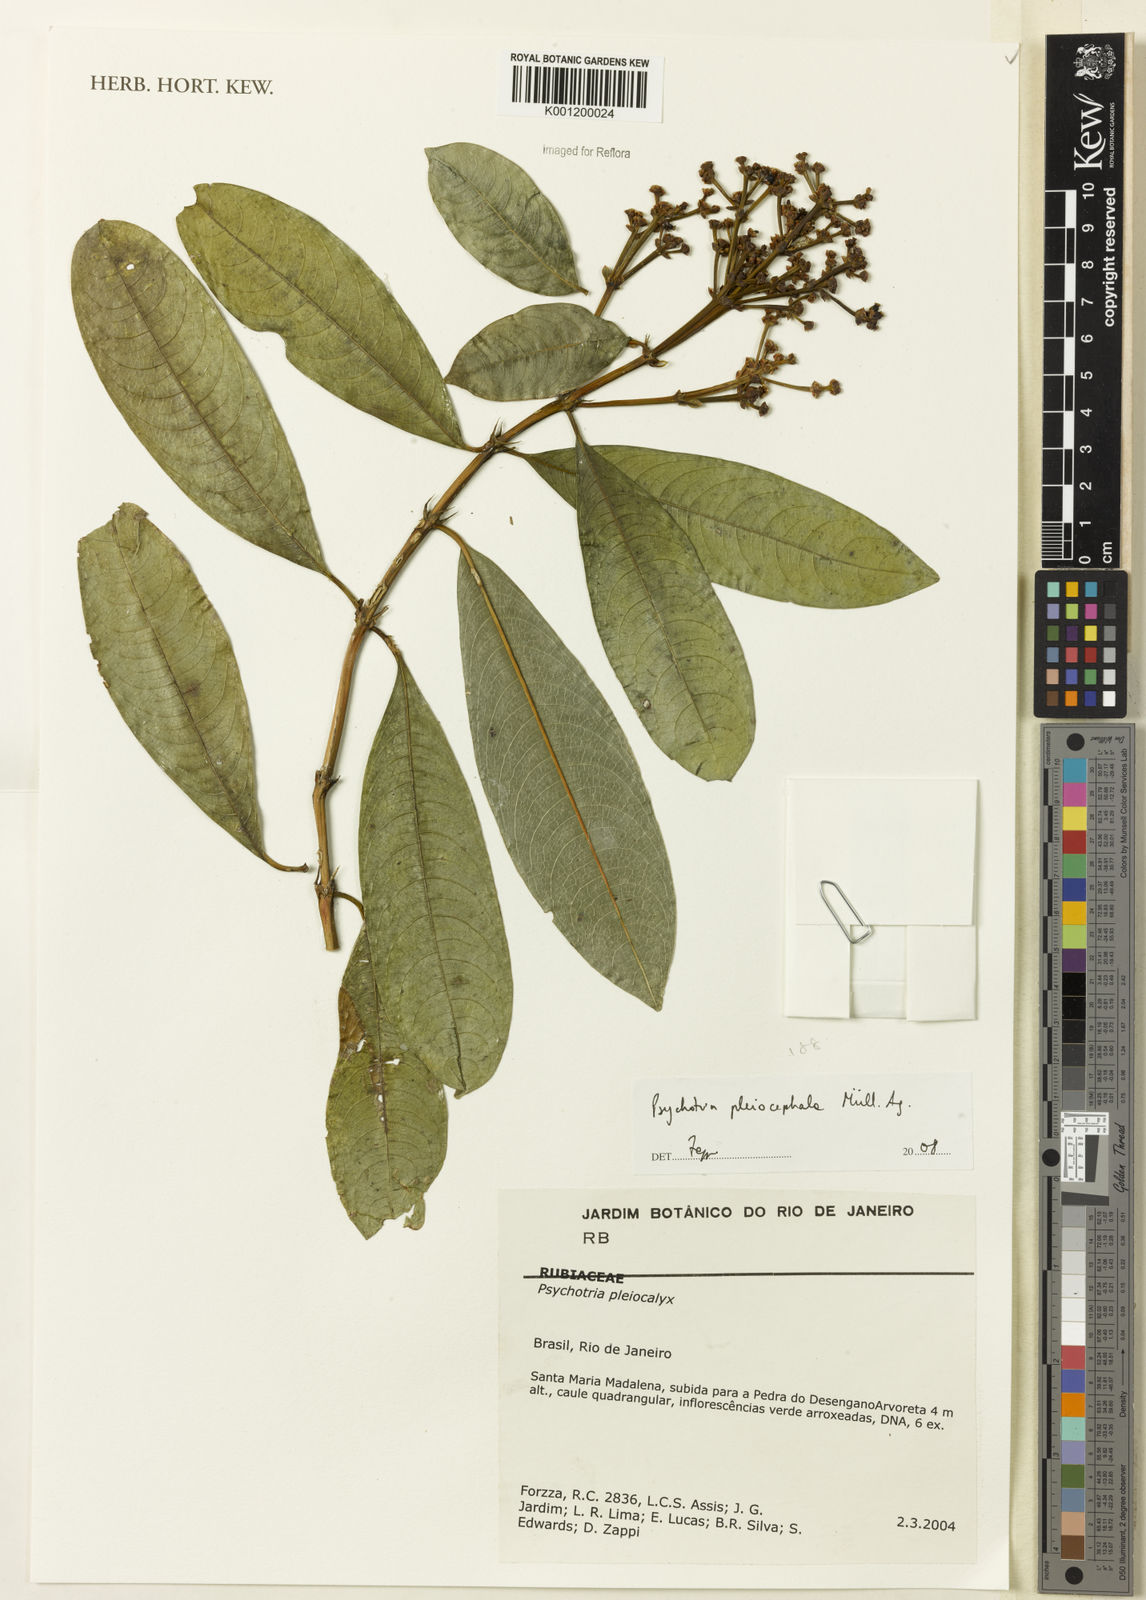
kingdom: Plantae
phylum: Tracheophyta
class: Magnoliopsida
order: Gentianales
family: Rubiaceae
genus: Psychotria
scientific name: Psychotria
